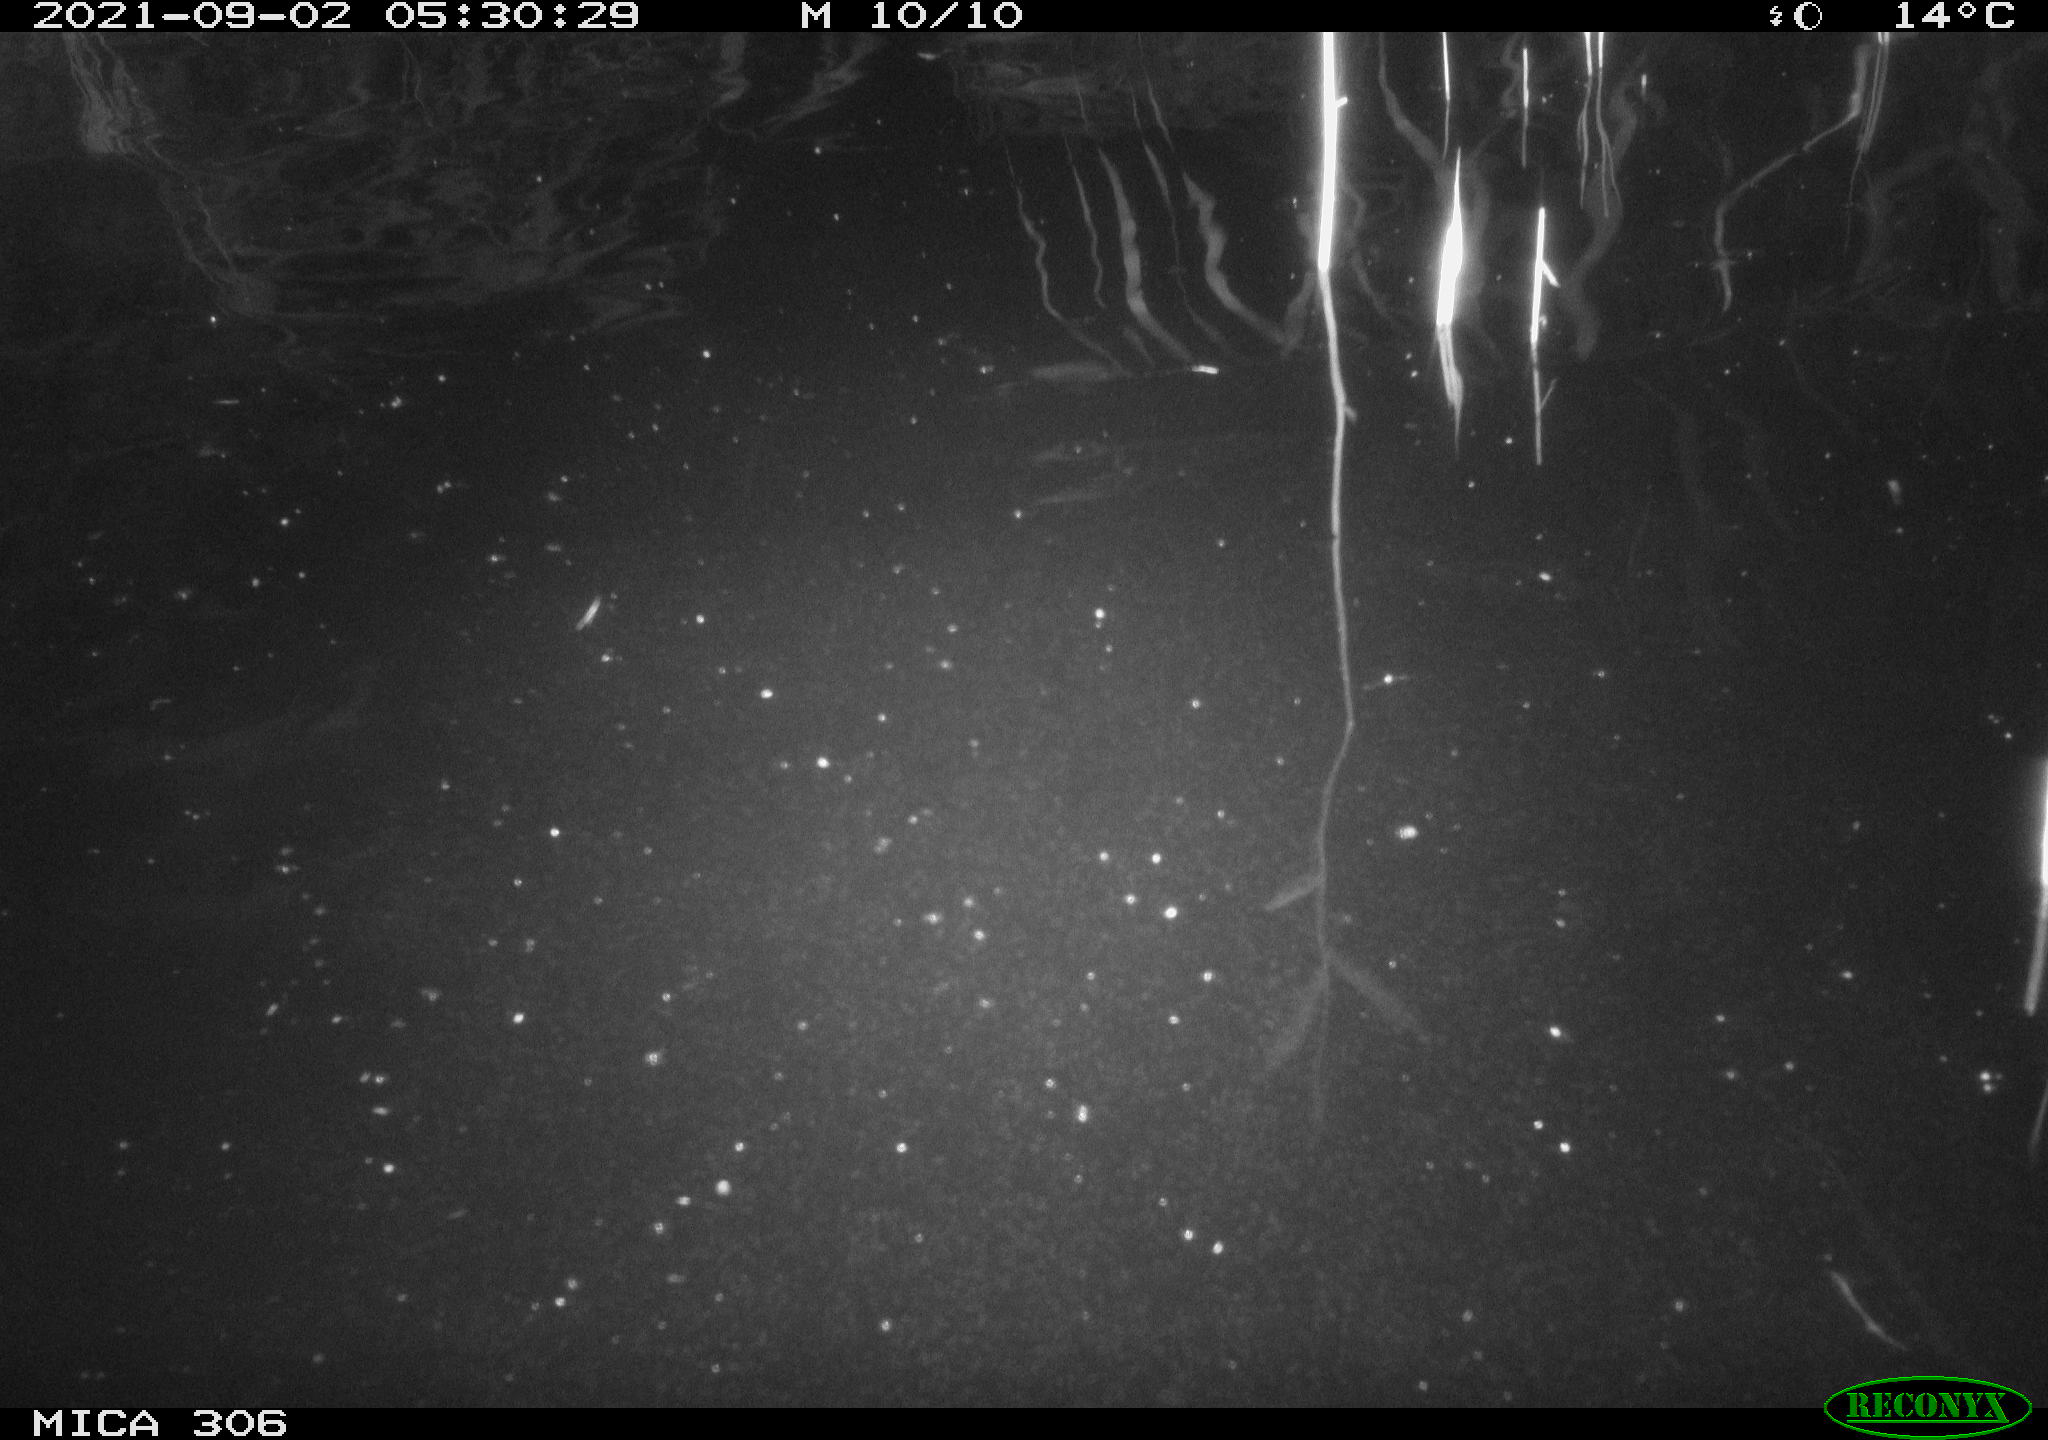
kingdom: Animalia
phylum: Chordata
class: Mammalia
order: Rodentia
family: Cricetidae
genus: Ondatra
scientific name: Ondatra zibethicus
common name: Muskrat
